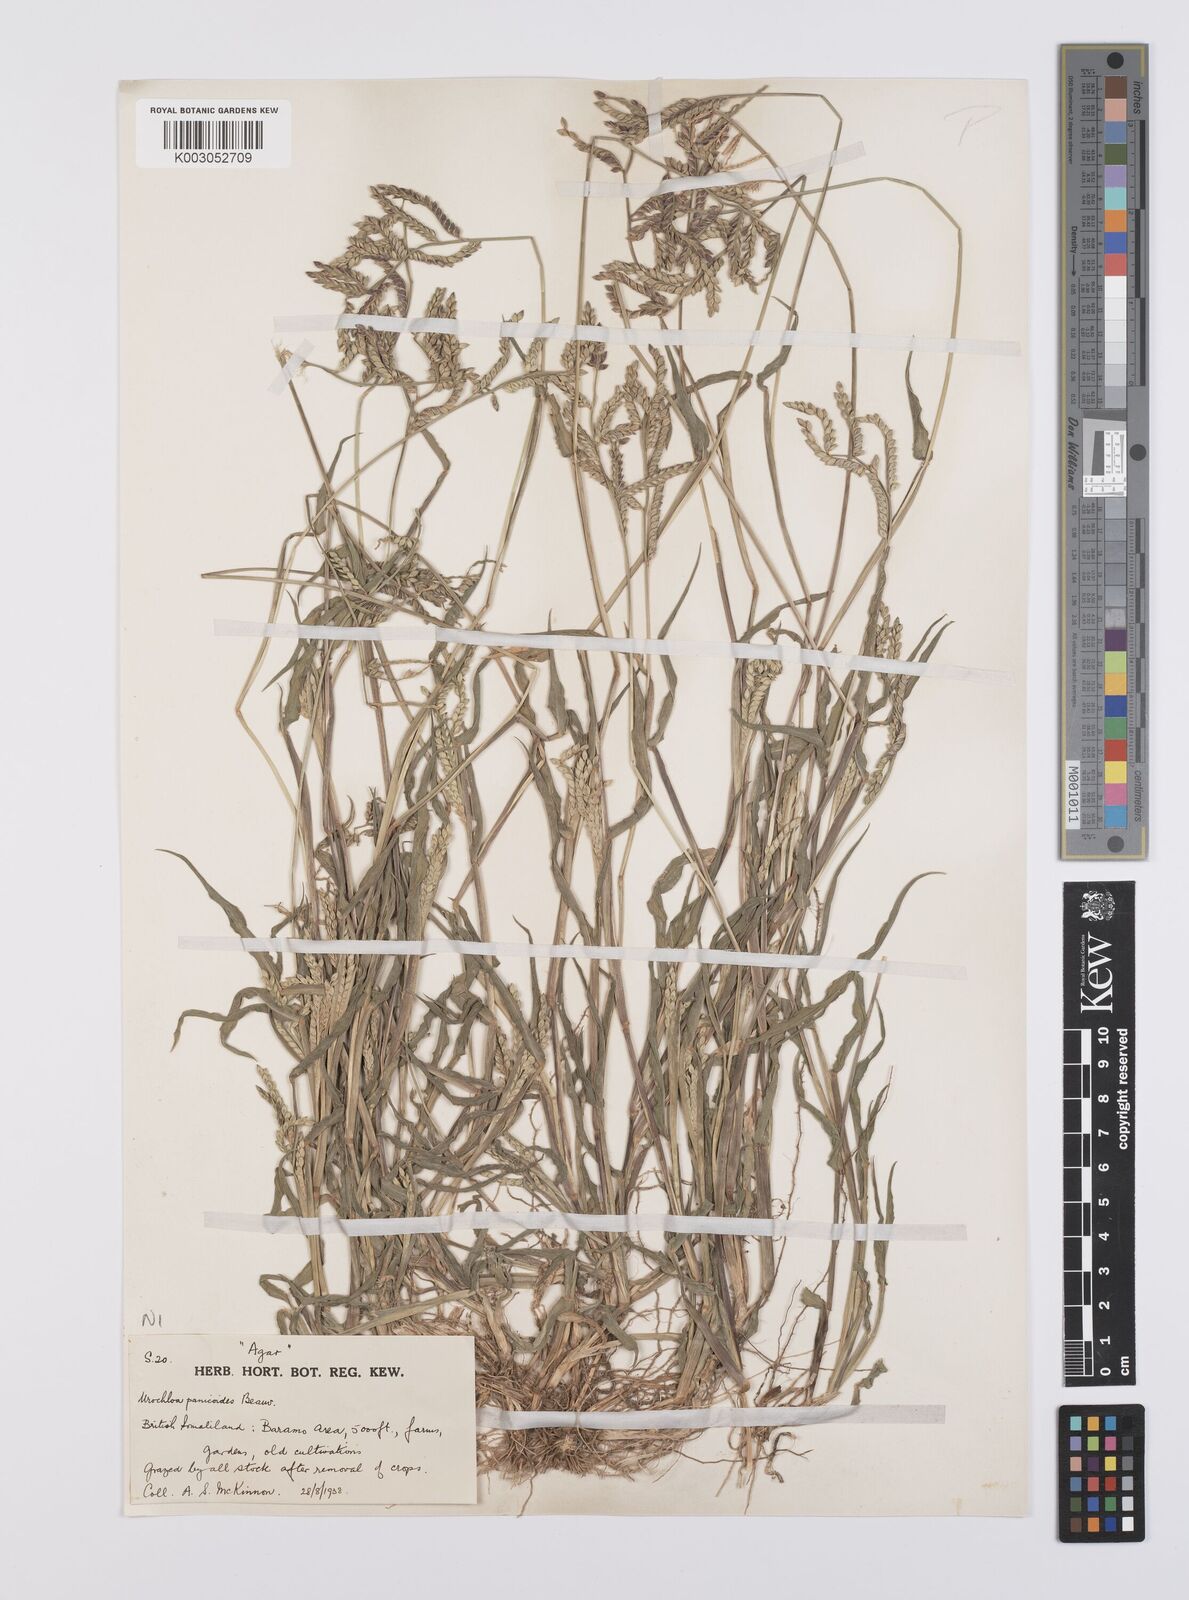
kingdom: Plantae
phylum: Tracheophyta
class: Liliopsida
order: Poales
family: Poaceae
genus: Urochloa
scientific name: Urochloa panicoides
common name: Sharp-flowered signal-grass
